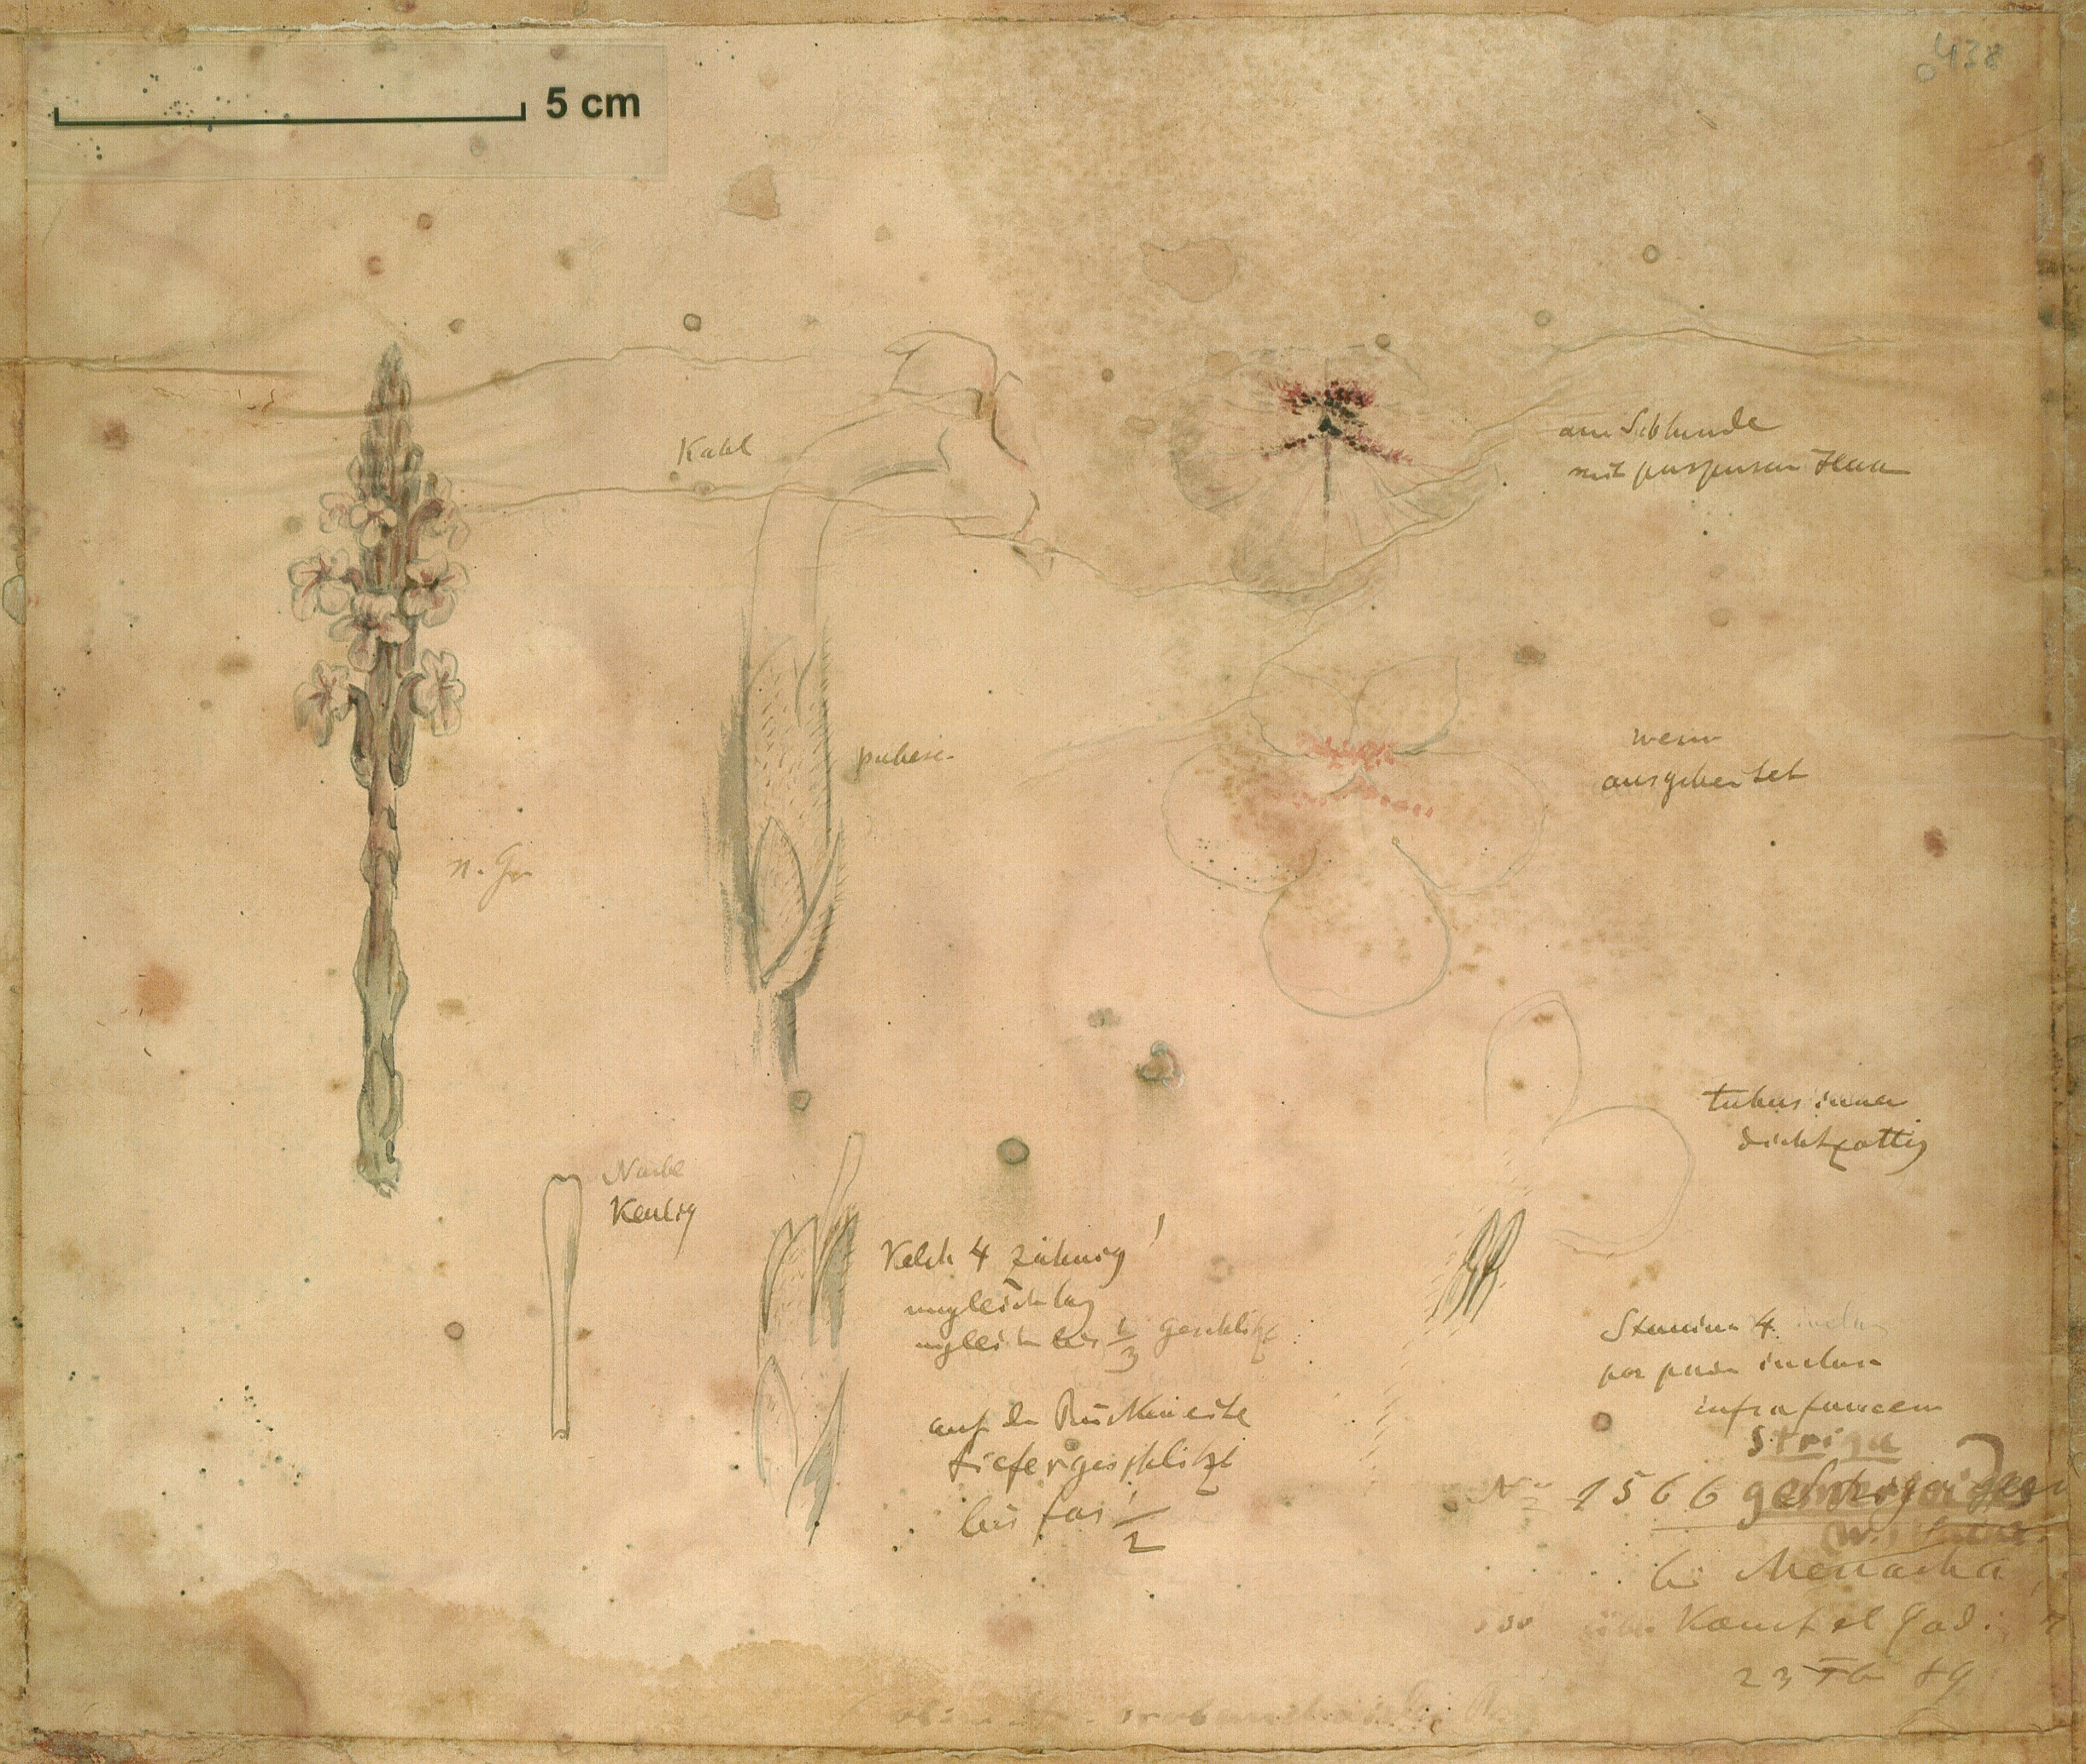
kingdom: Plantae
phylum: Tracheophyta
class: Magnoliopsida
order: Lamiales
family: Orobanchaceae
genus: Striga
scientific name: Striga gesnerioides
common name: Cowpea witchweed
